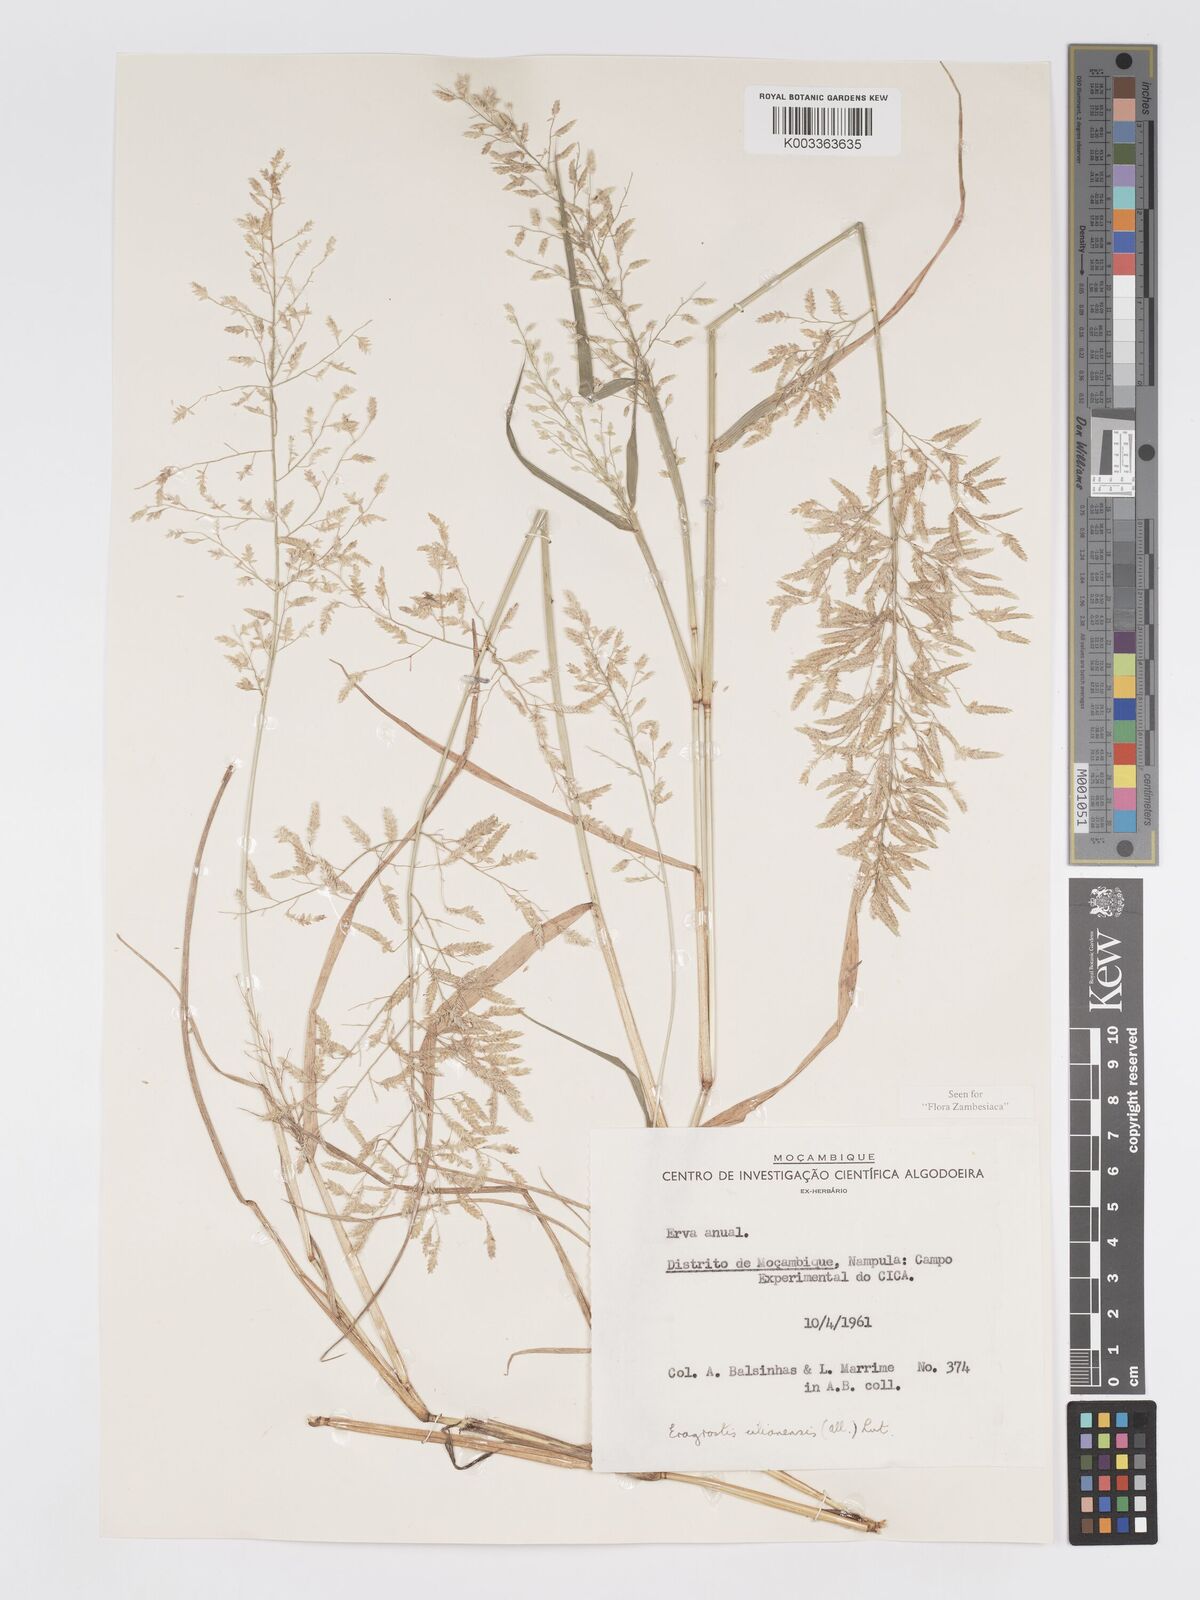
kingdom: Plantae
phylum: Tracheophyta
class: Liliopsida
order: Poales
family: Poaceae
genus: Eragrostis
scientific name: Eragrostis cilianensis
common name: Stinkgrass
